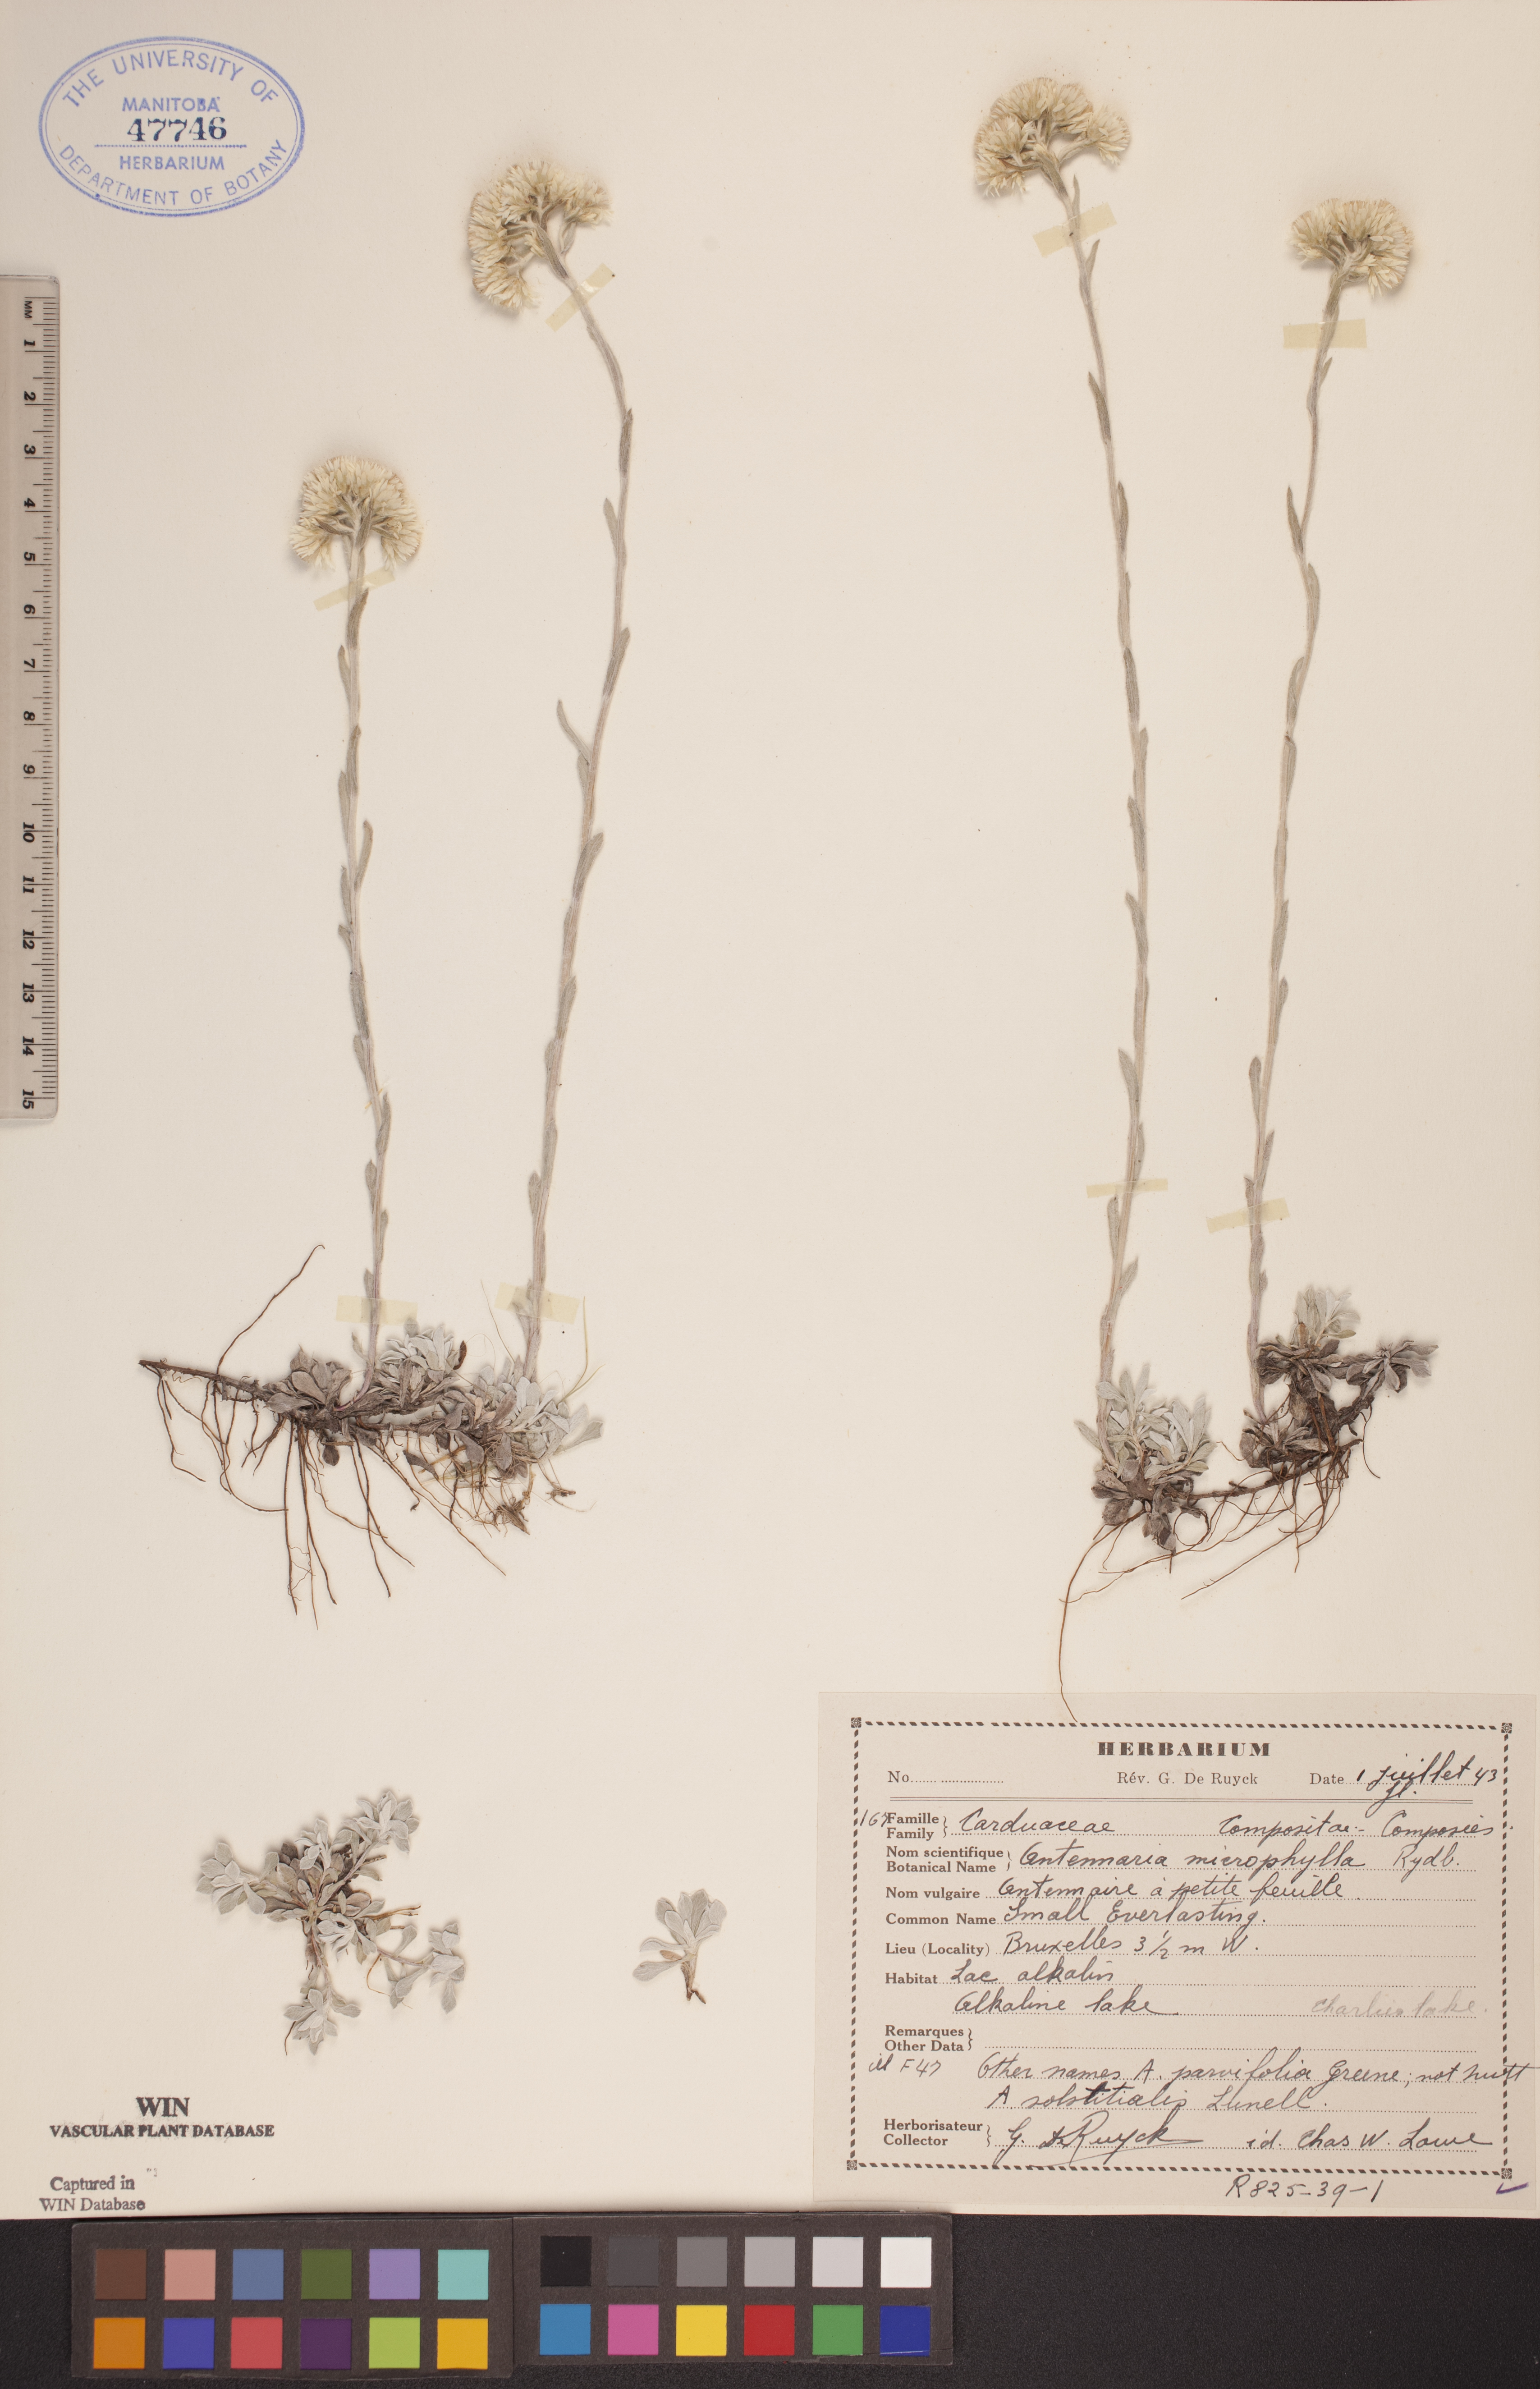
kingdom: Plantae
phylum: Tracheophyta
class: Magnoliopsida
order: Asterales
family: Asteraceae
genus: Antennaria
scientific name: Antennaria microphylla
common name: Littleleaf pussytoes
